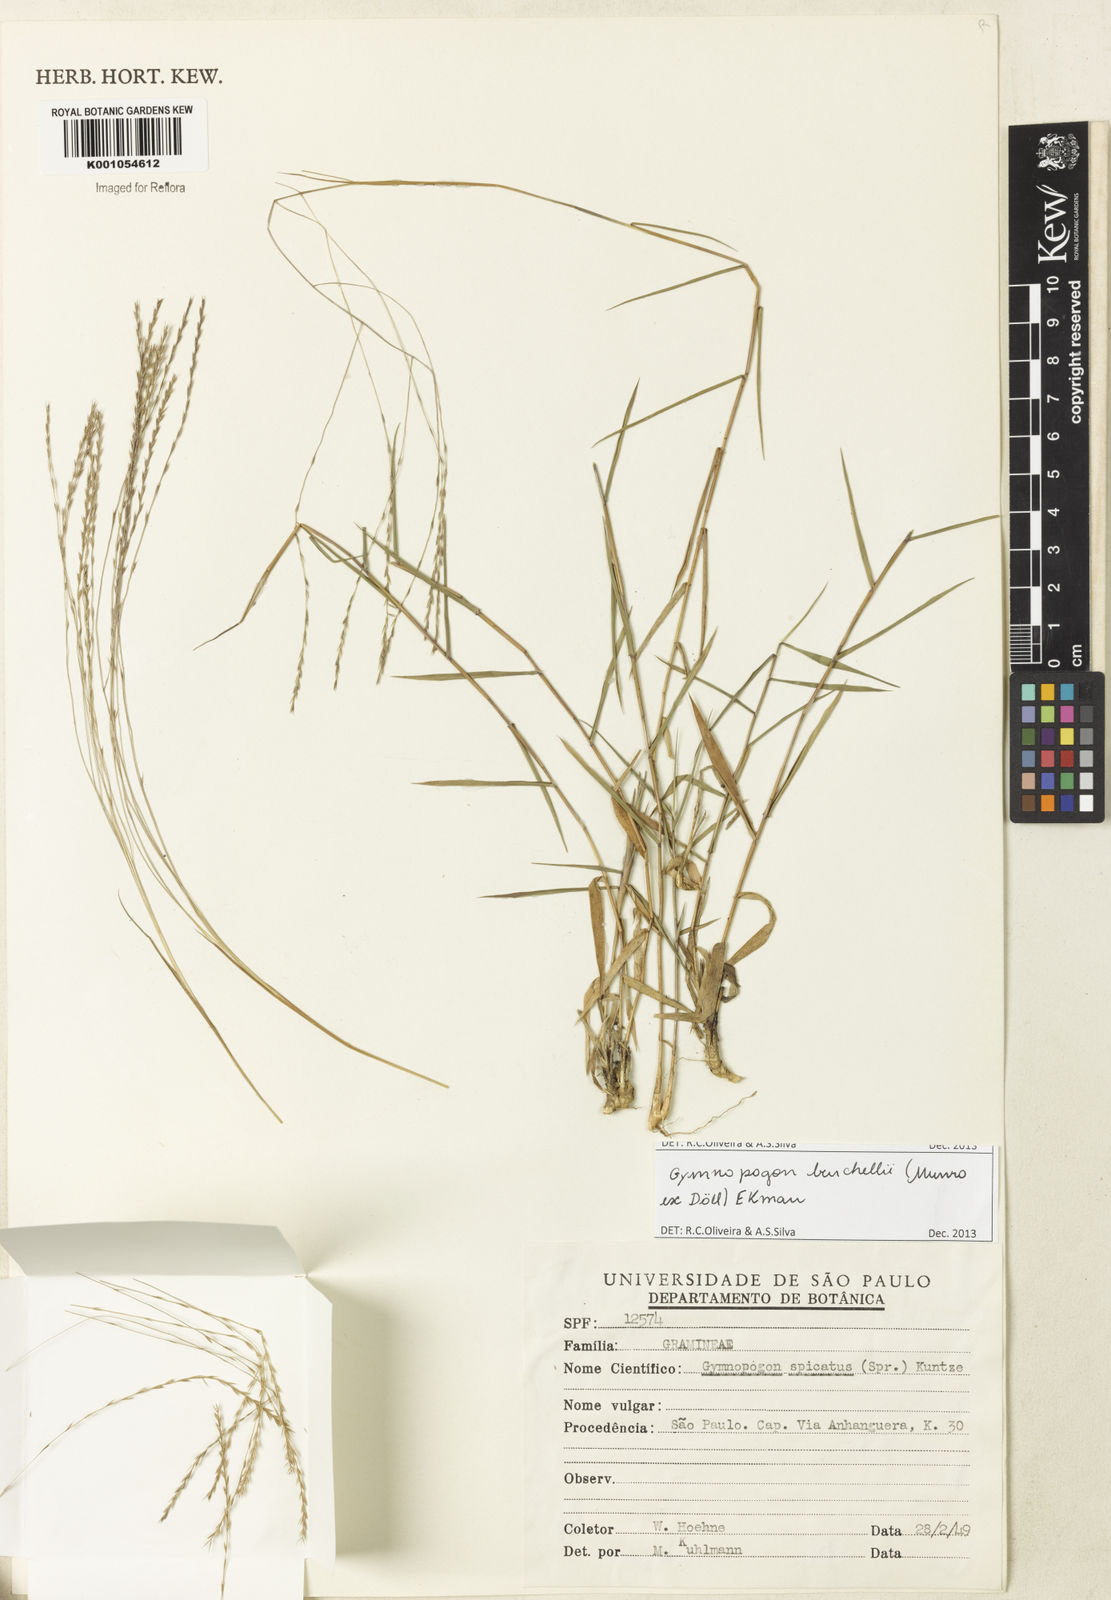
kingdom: Plantae
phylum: Tracheophyta
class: Liliopsida
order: Poales
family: Poaceae
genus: Gymnopogon
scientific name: Gymnopogon
